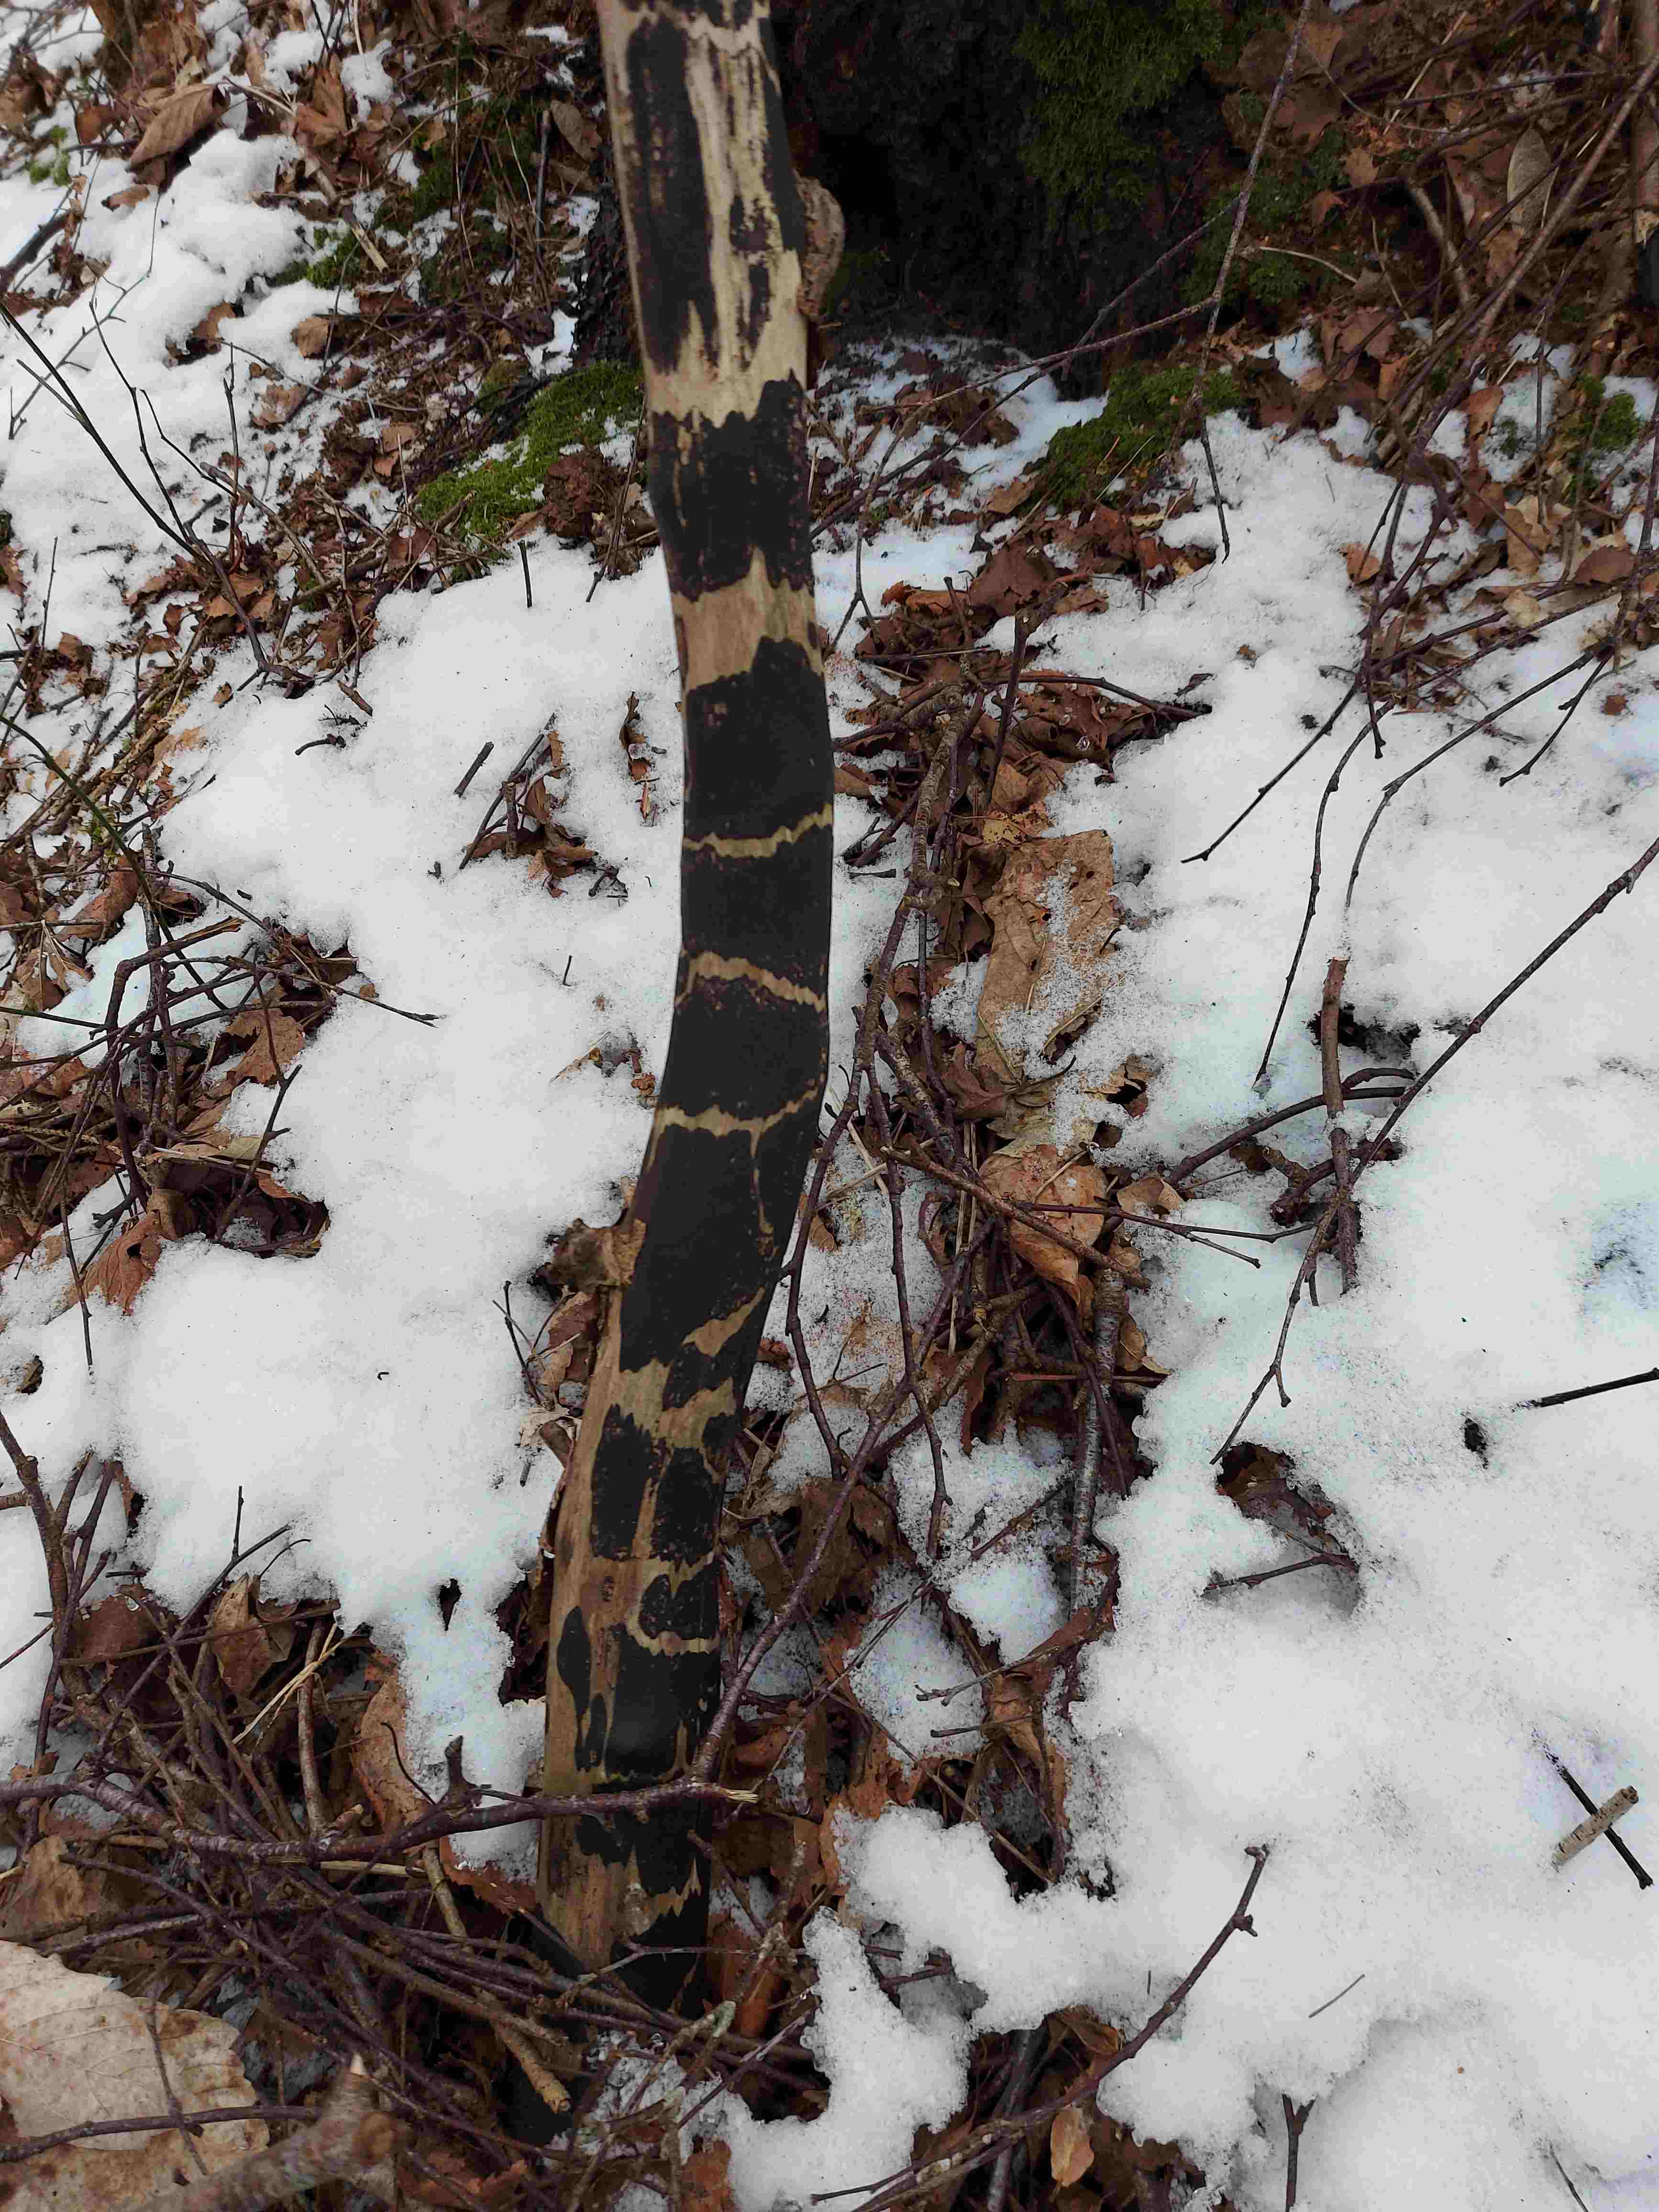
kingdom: Fungi
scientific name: Fungi
